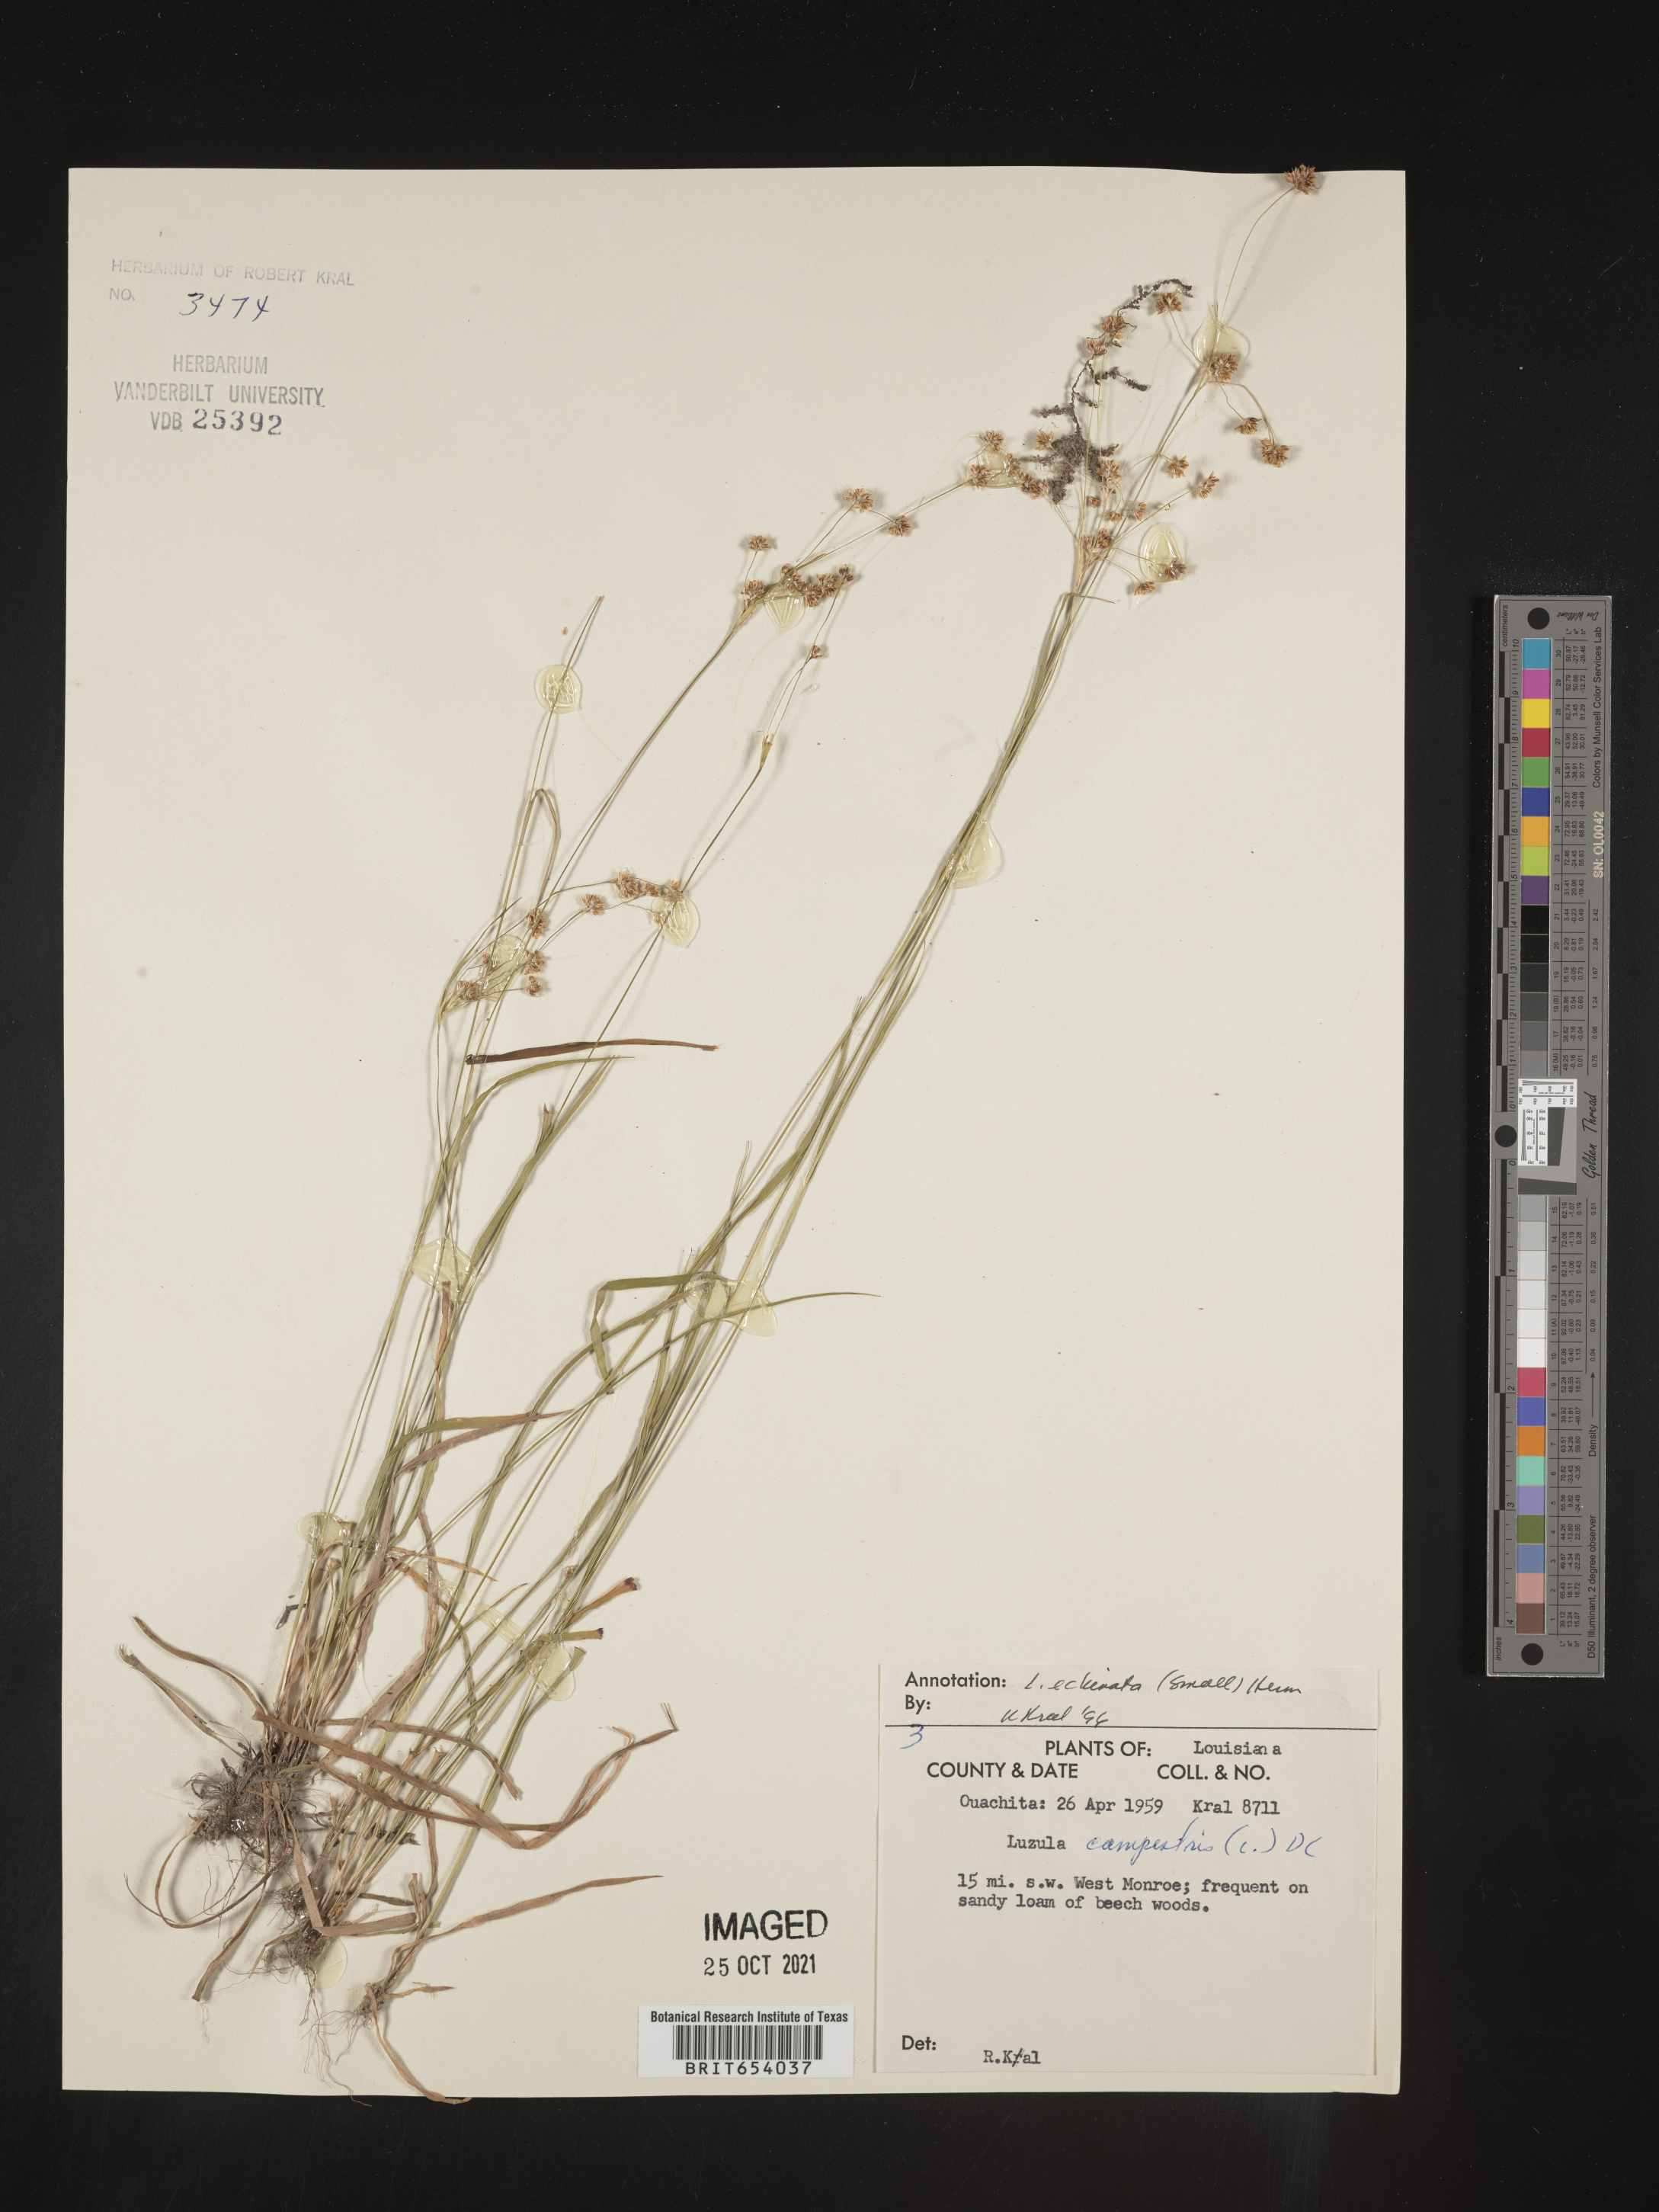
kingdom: Plantae
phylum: Tracheophyta
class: Liliopsida
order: Poales
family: Juncaceae
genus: Luzula
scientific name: Luzula echinata
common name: Hedgehog woodrush
